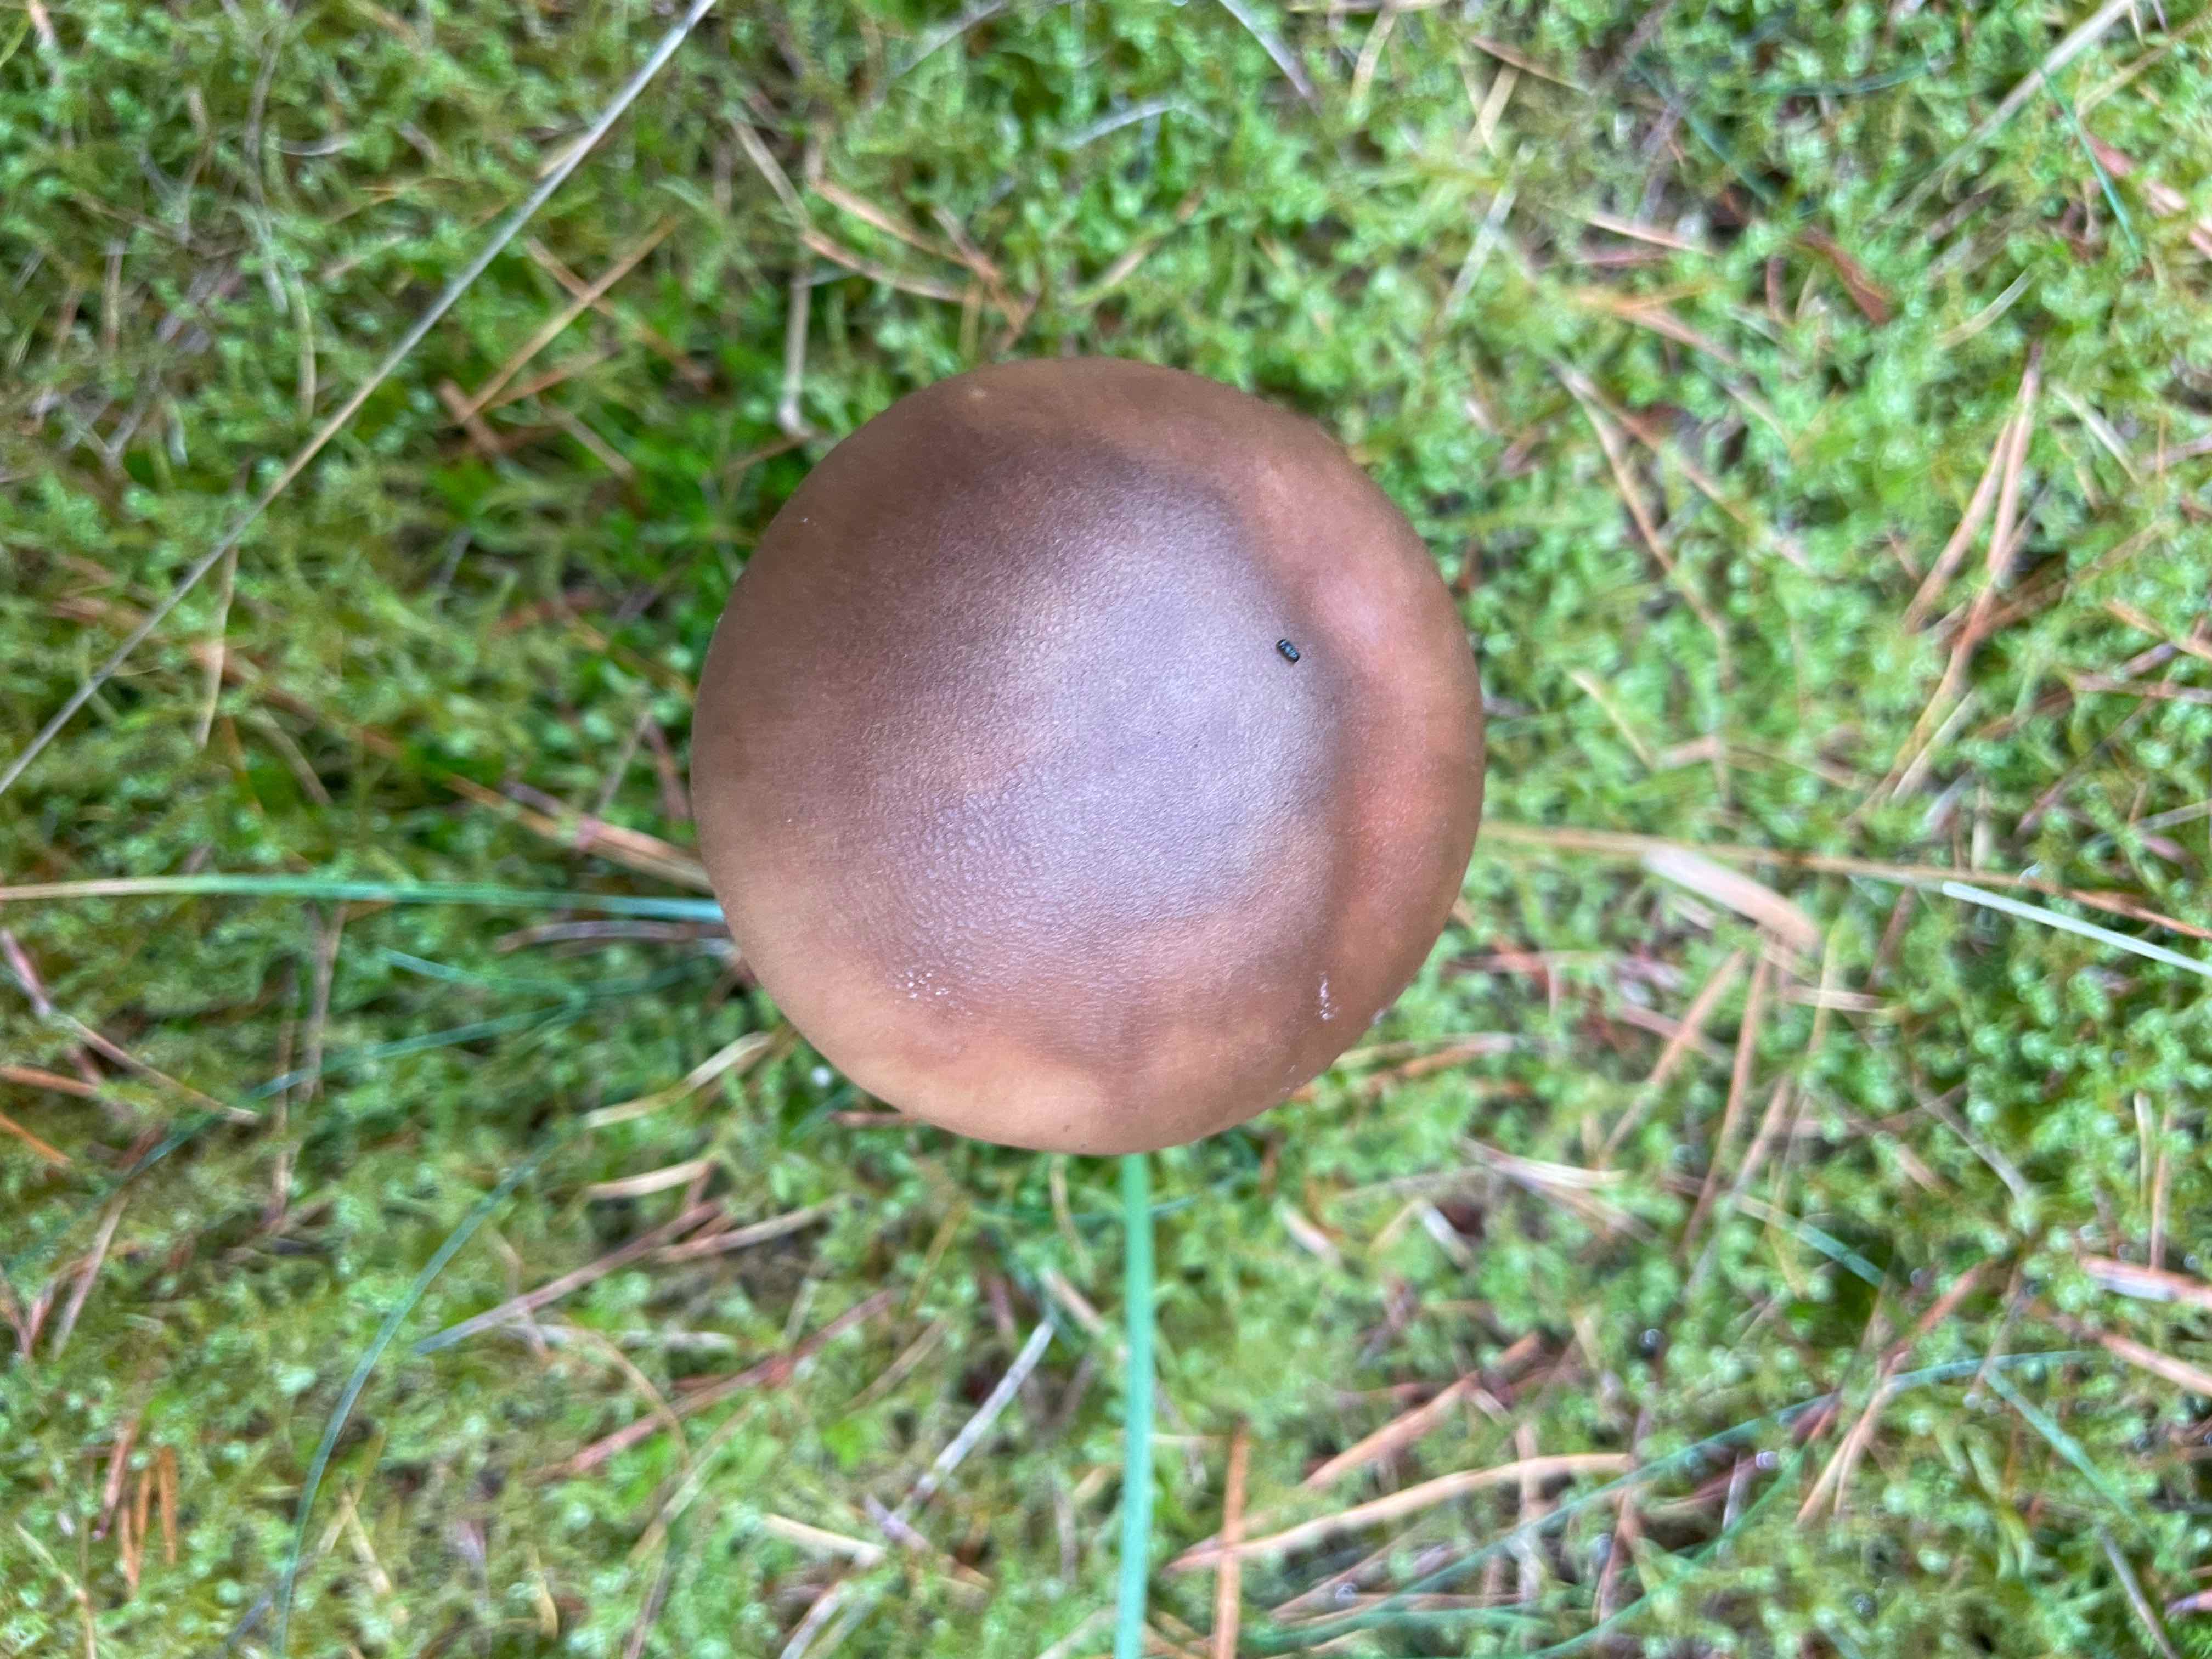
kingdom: Fungi
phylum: Basidiomycota
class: Agaricomycetes
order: Agaricales
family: Amanitaceae
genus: Amanita
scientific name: Amanita rubescens
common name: rødmende fluesvamp
